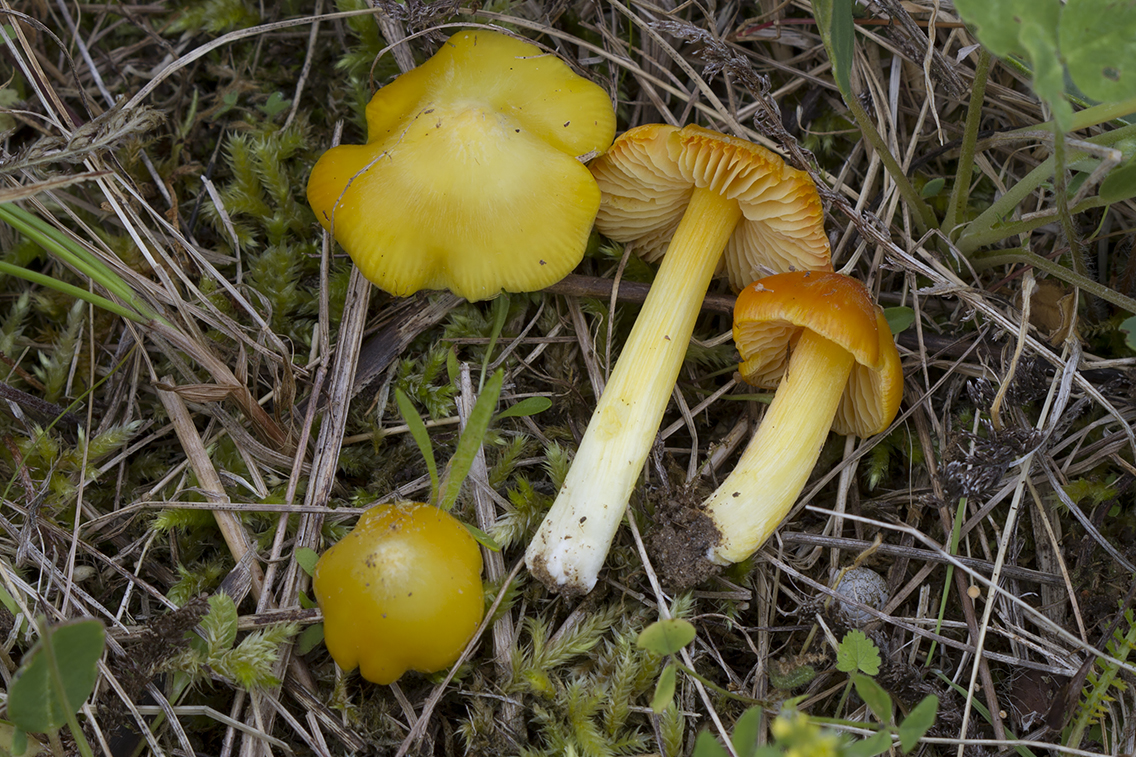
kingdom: Fungi
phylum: Basidiomycota
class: Agaricomycetes
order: Agaricales
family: Hygrophoraceae
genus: Hygrocybe
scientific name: Hygrocybe acutoconica
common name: Konrads vokshat
